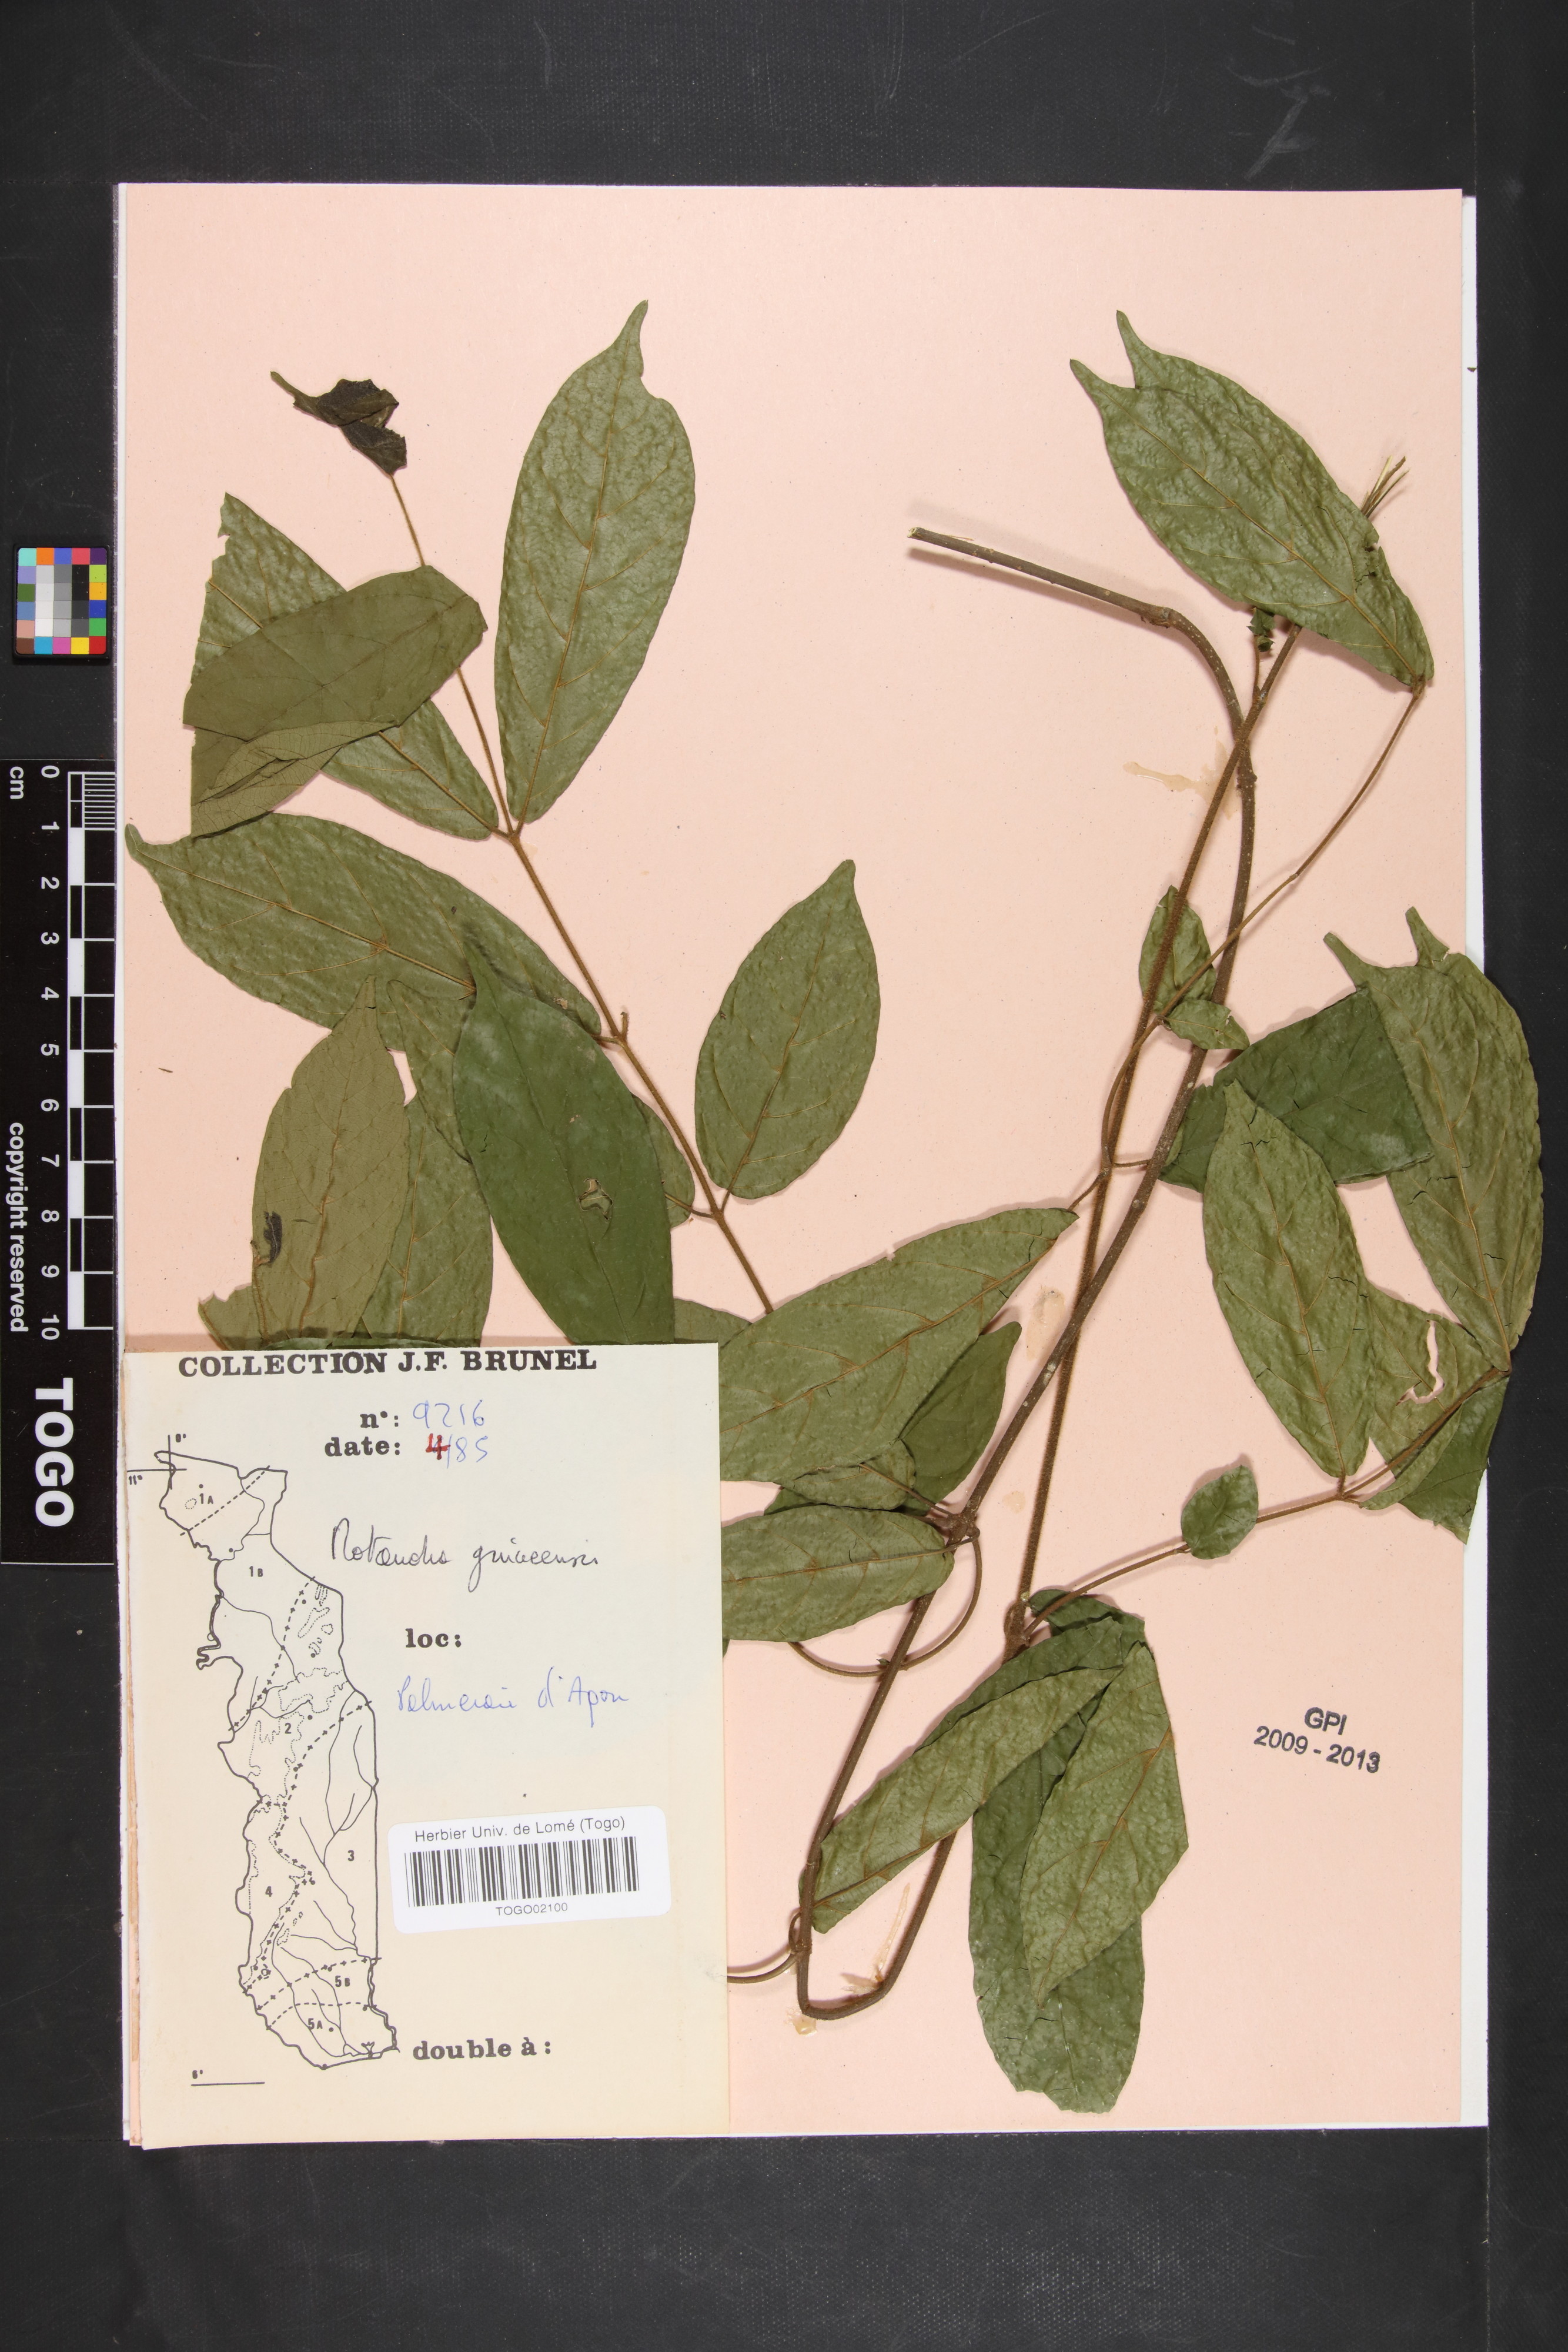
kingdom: Plantae
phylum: Tracheophyta
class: Magnoliopsida
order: Gentianales
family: Apocynaceae
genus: Motandra
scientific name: Motandra paniculata
